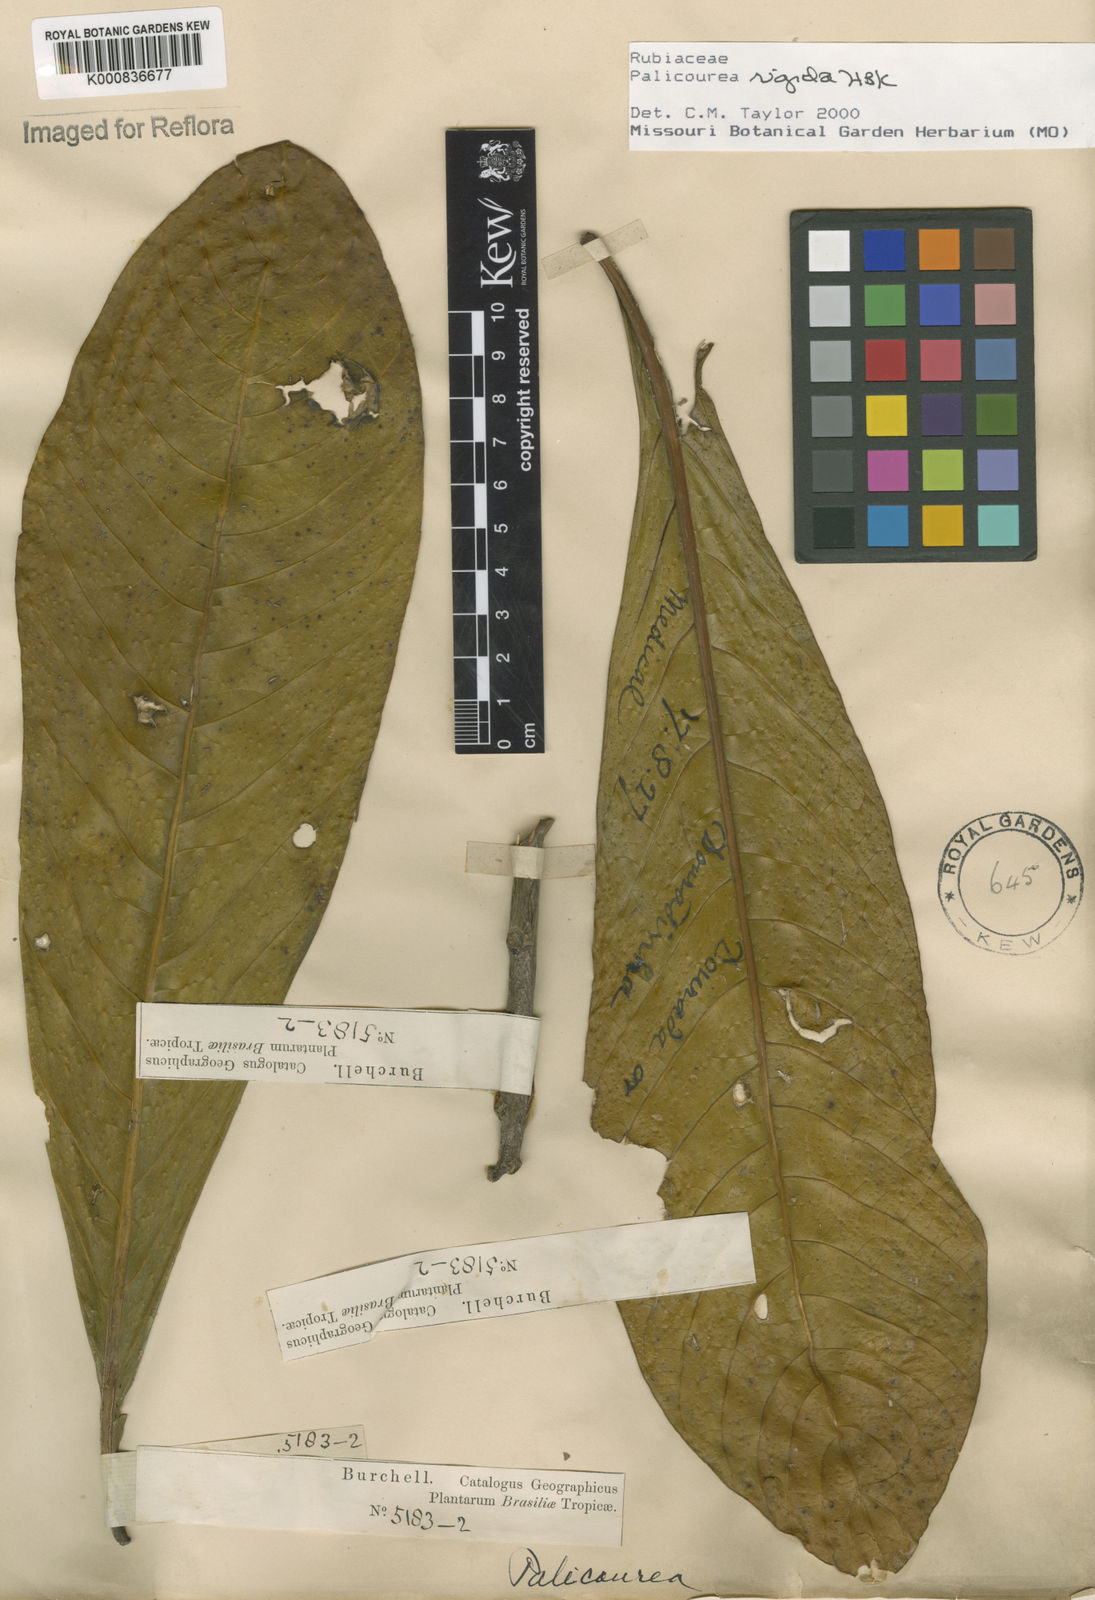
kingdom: Plantae
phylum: Tracheophyta
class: Magnoliopsida
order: Gentianales
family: Rubiaceae
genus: Palicourea
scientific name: Palicourea rigida
